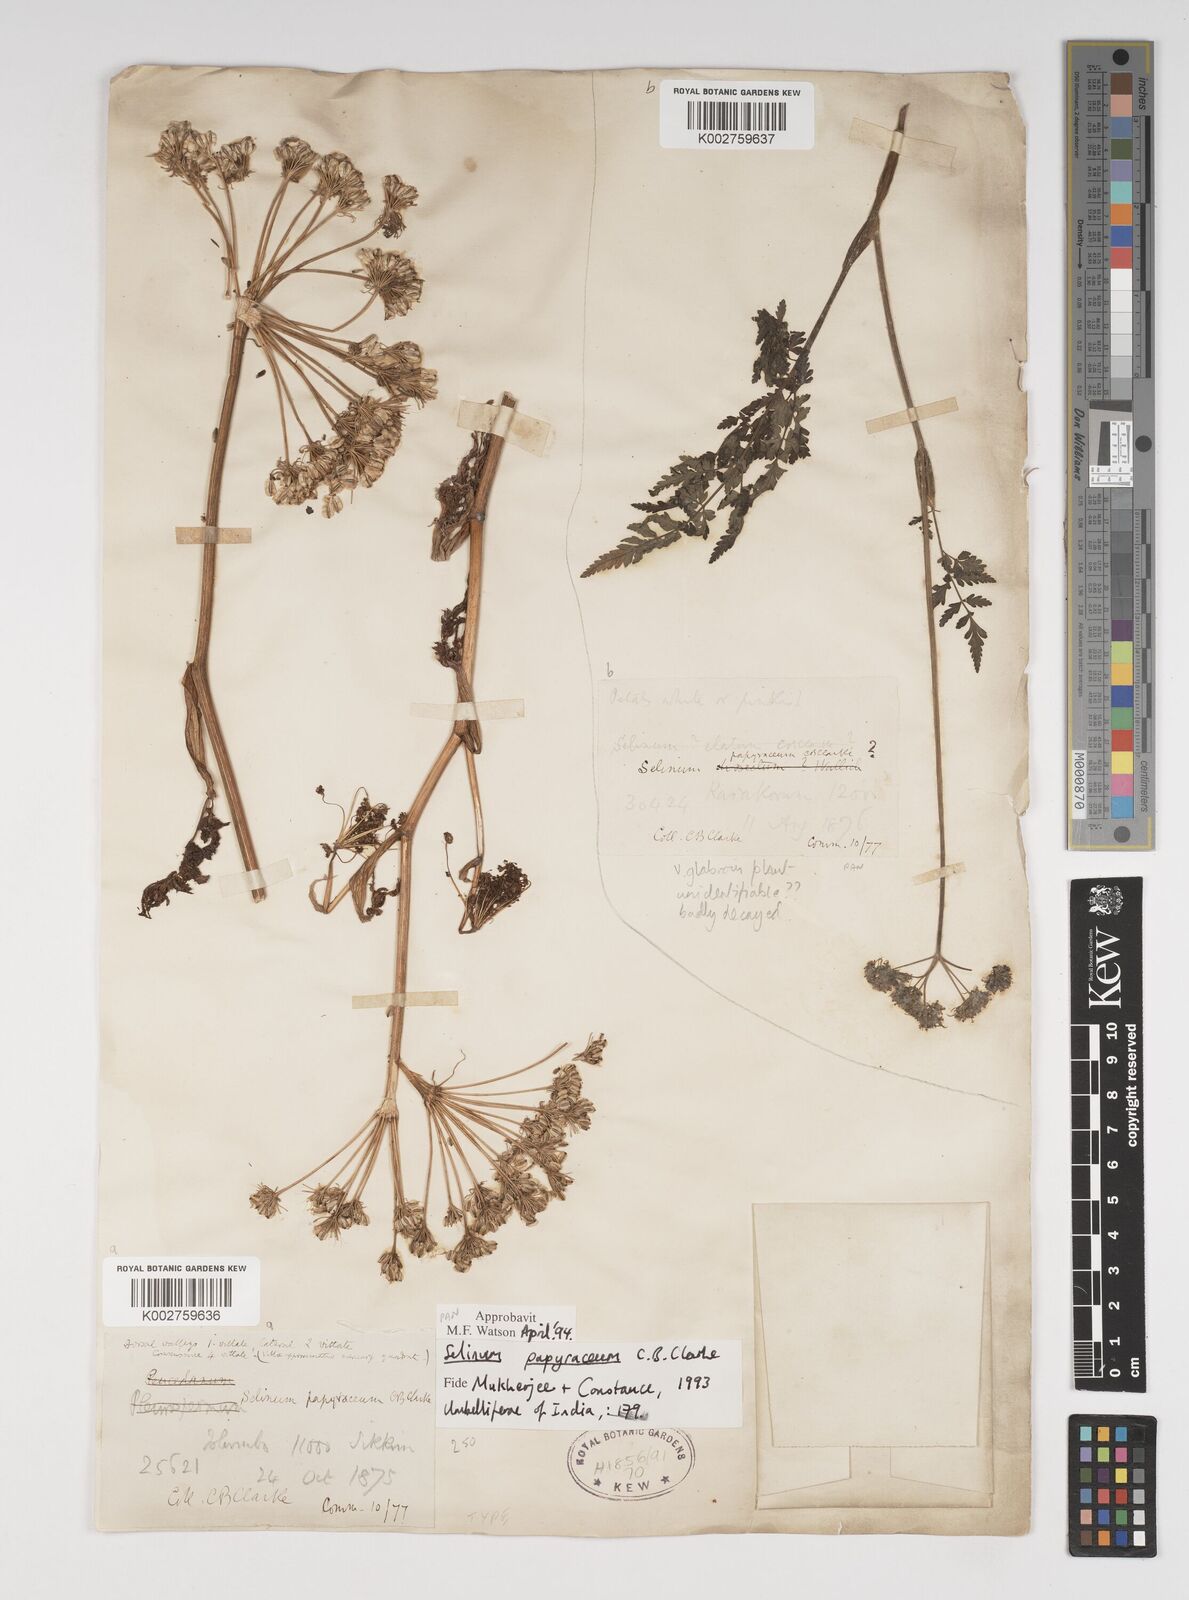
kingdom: Plantae
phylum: Tracheophyta
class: Magnoliopsida
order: Apiales
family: Apiaceae
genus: Conioselinum
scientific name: Conioselinum tataricum
